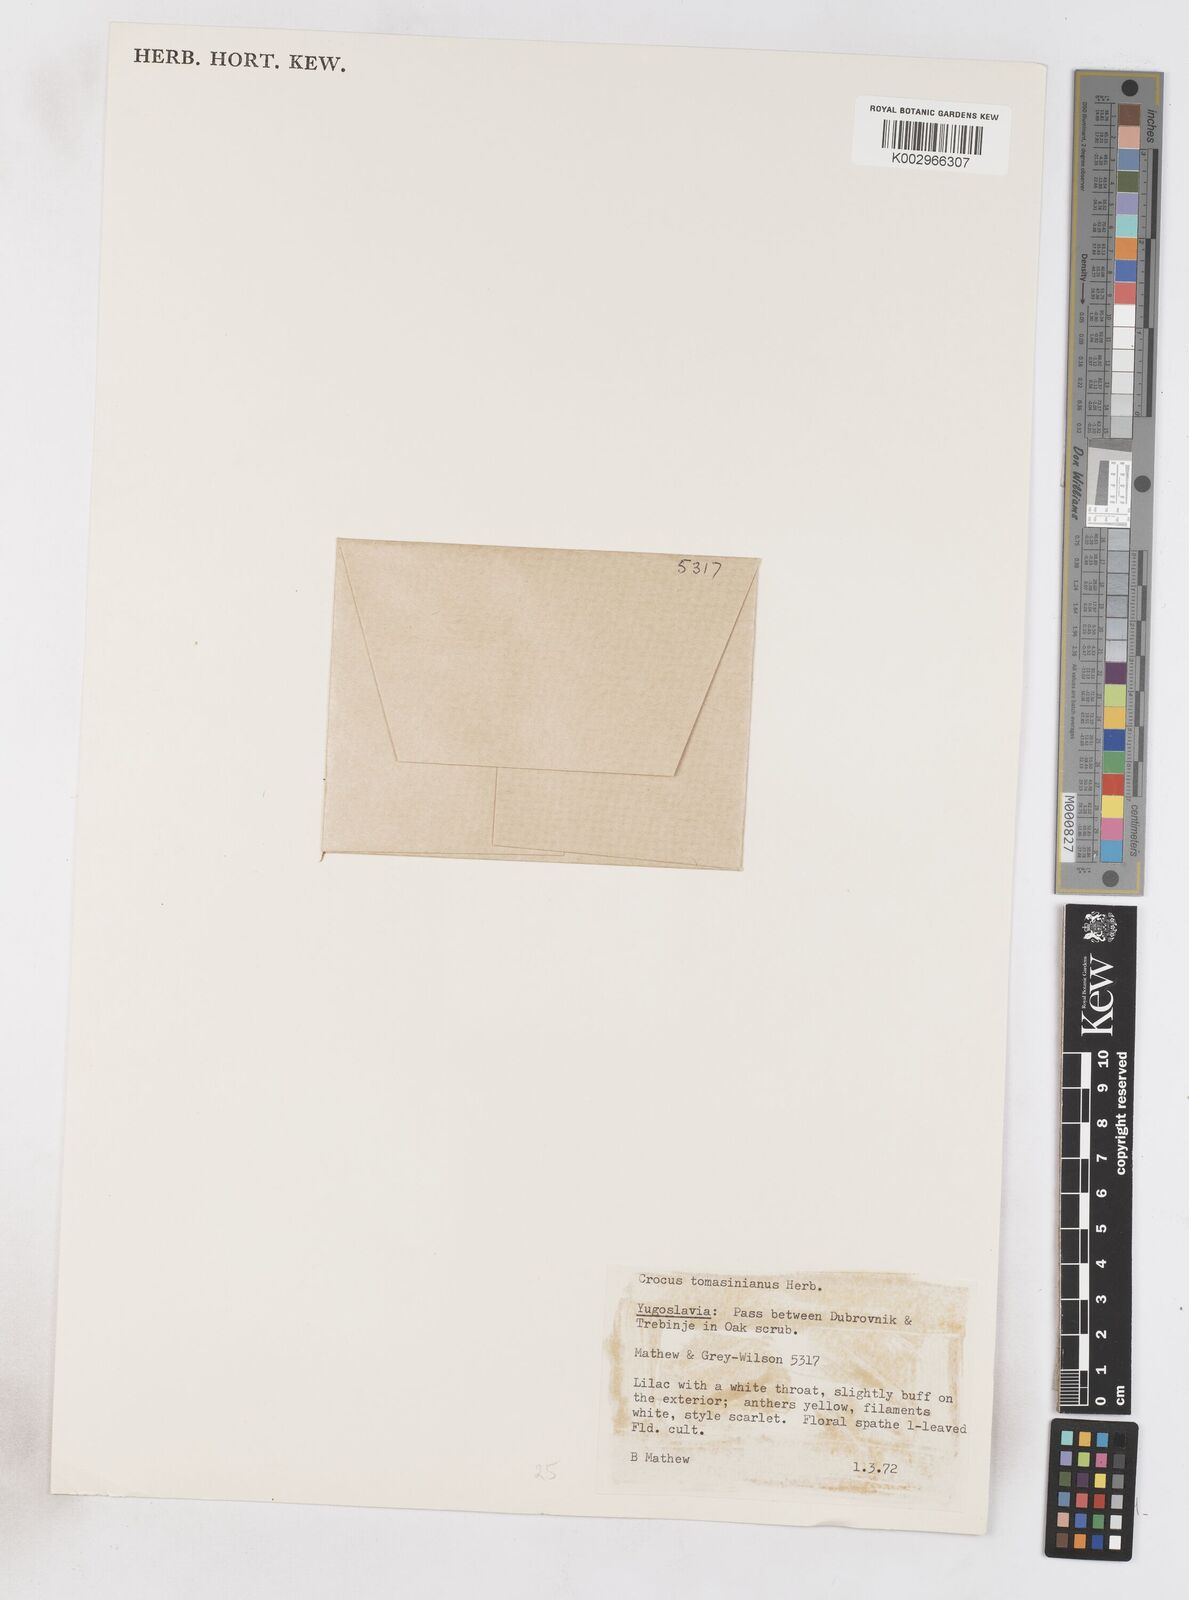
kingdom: Plantae
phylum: Tracheophyta
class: Liliopsida
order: Asparagales
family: Iridaceae
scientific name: Iridaceae
